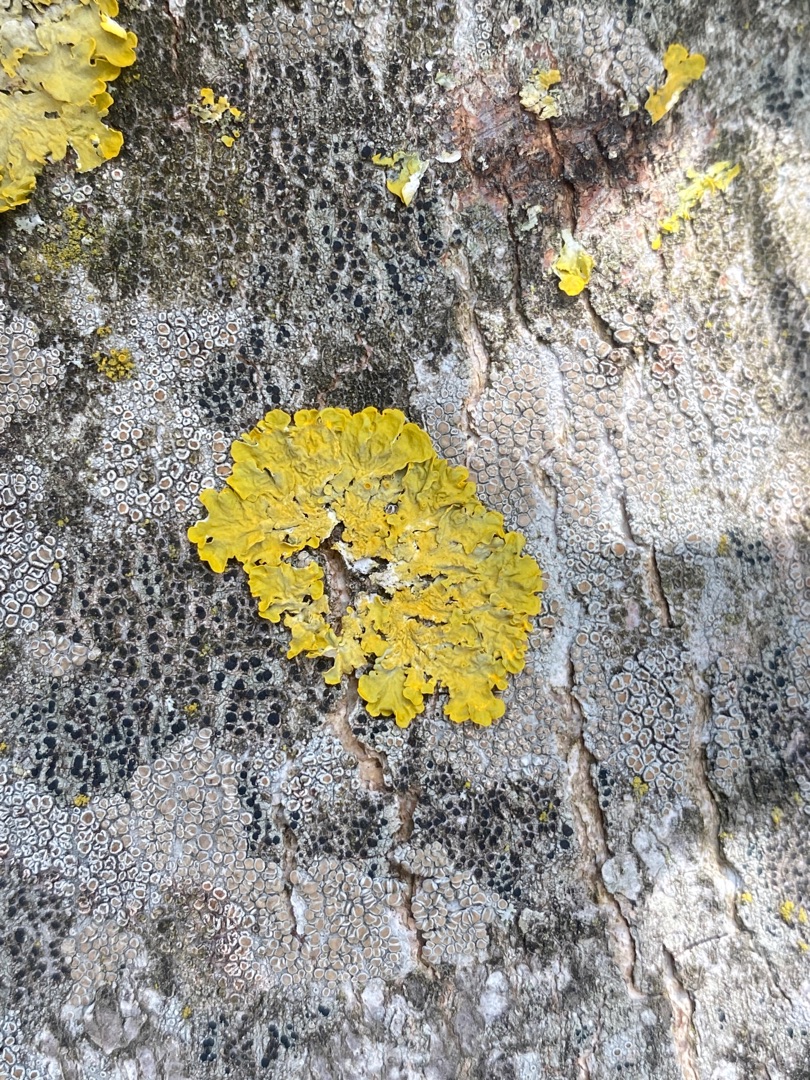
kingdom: Fungi
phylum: Ascomycota
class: Lecanoromycetes
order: Teloschistales
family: Teloschistaceae
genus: Xanthoria
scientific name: Xanthoria parietina
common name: Almindelig væggelav
